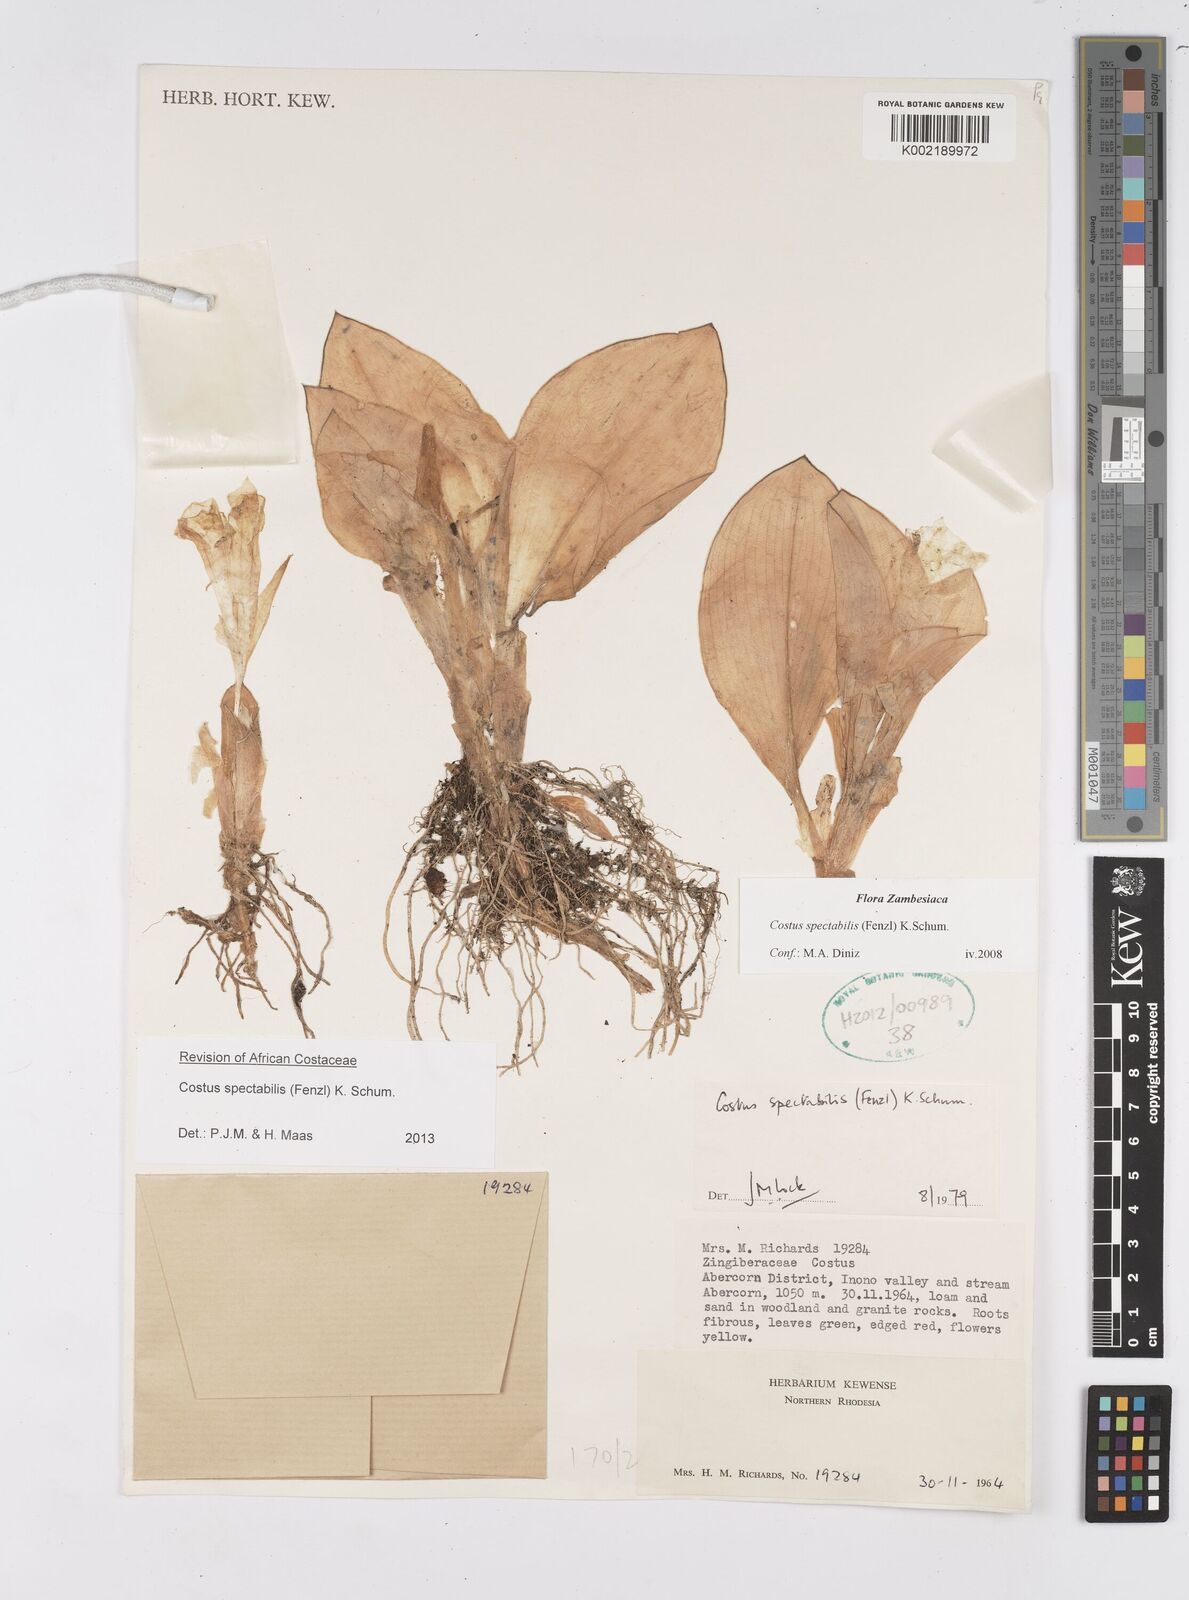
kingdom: Plantae
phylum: Tracheophyta
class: Liliopsida
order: Zingiberales
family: Costaceae
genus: Costus
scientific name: Costus spectabilis
